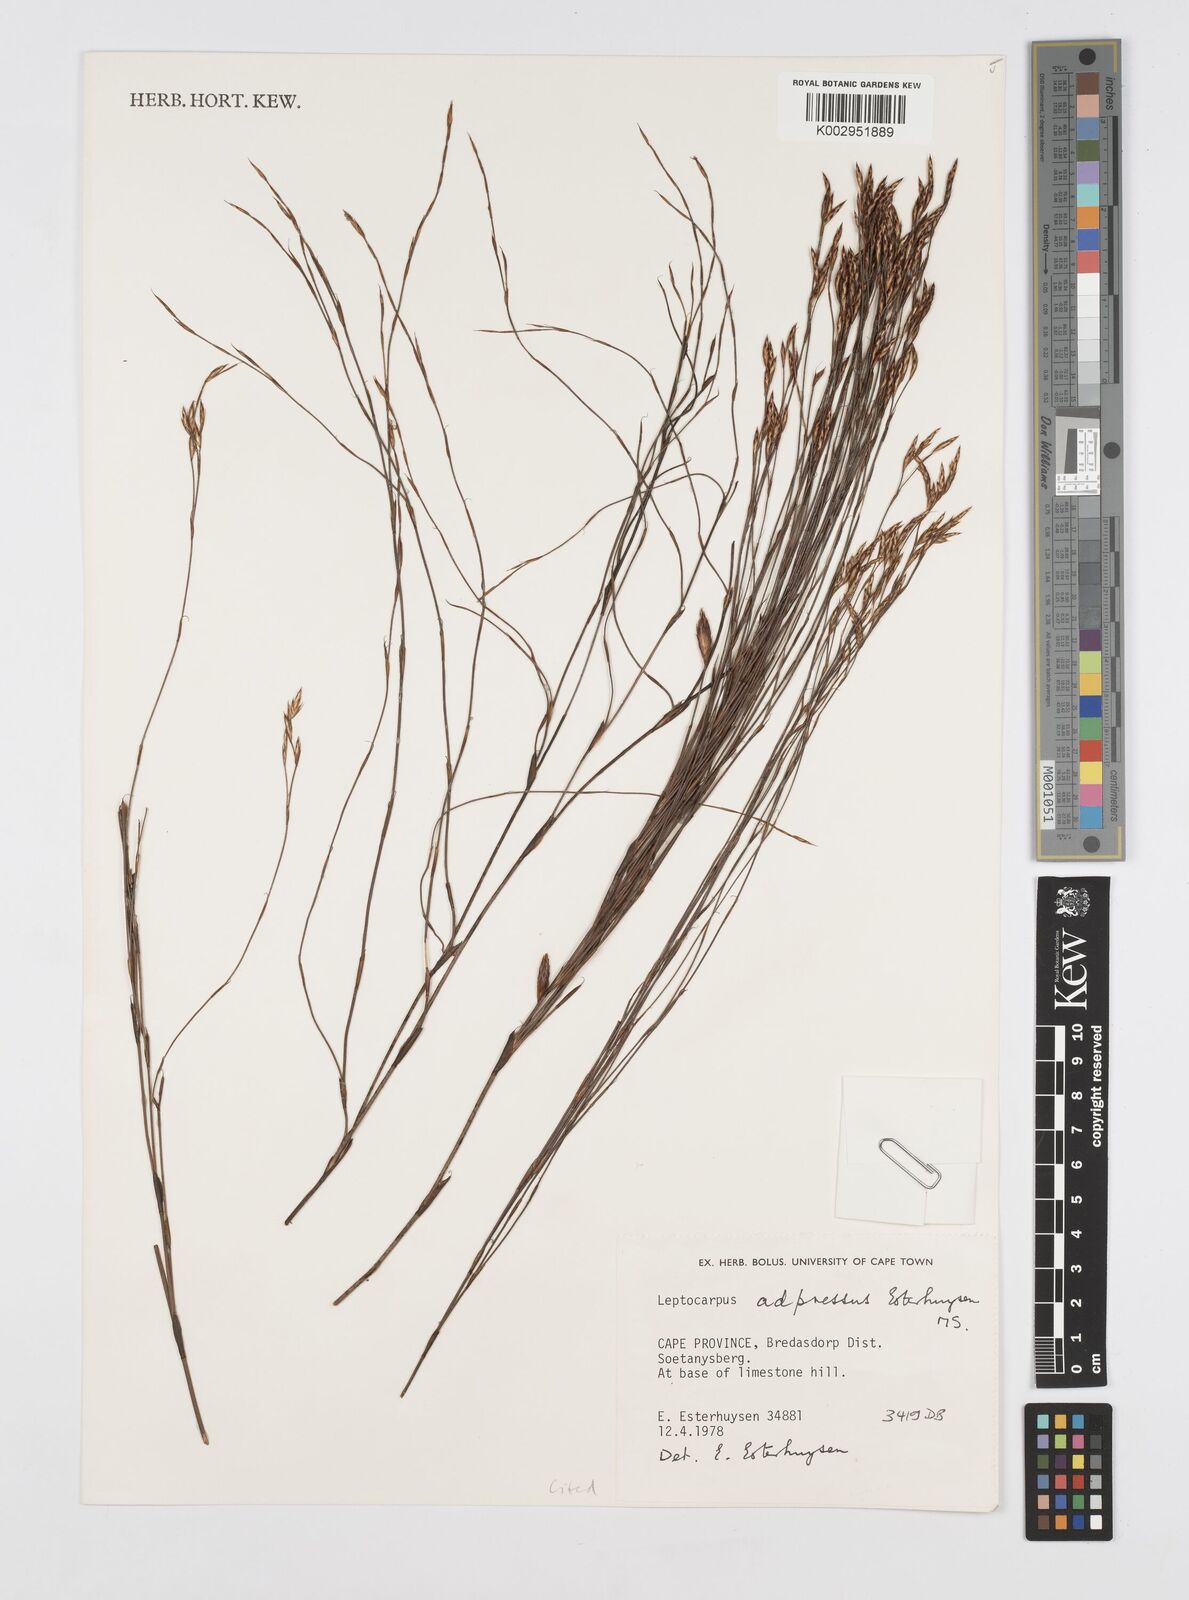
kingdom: Plantae
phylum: Tracheophyta
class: Liliopsida
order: Poales
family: Restionaceae
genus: Restio
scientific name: Restio adpressus
